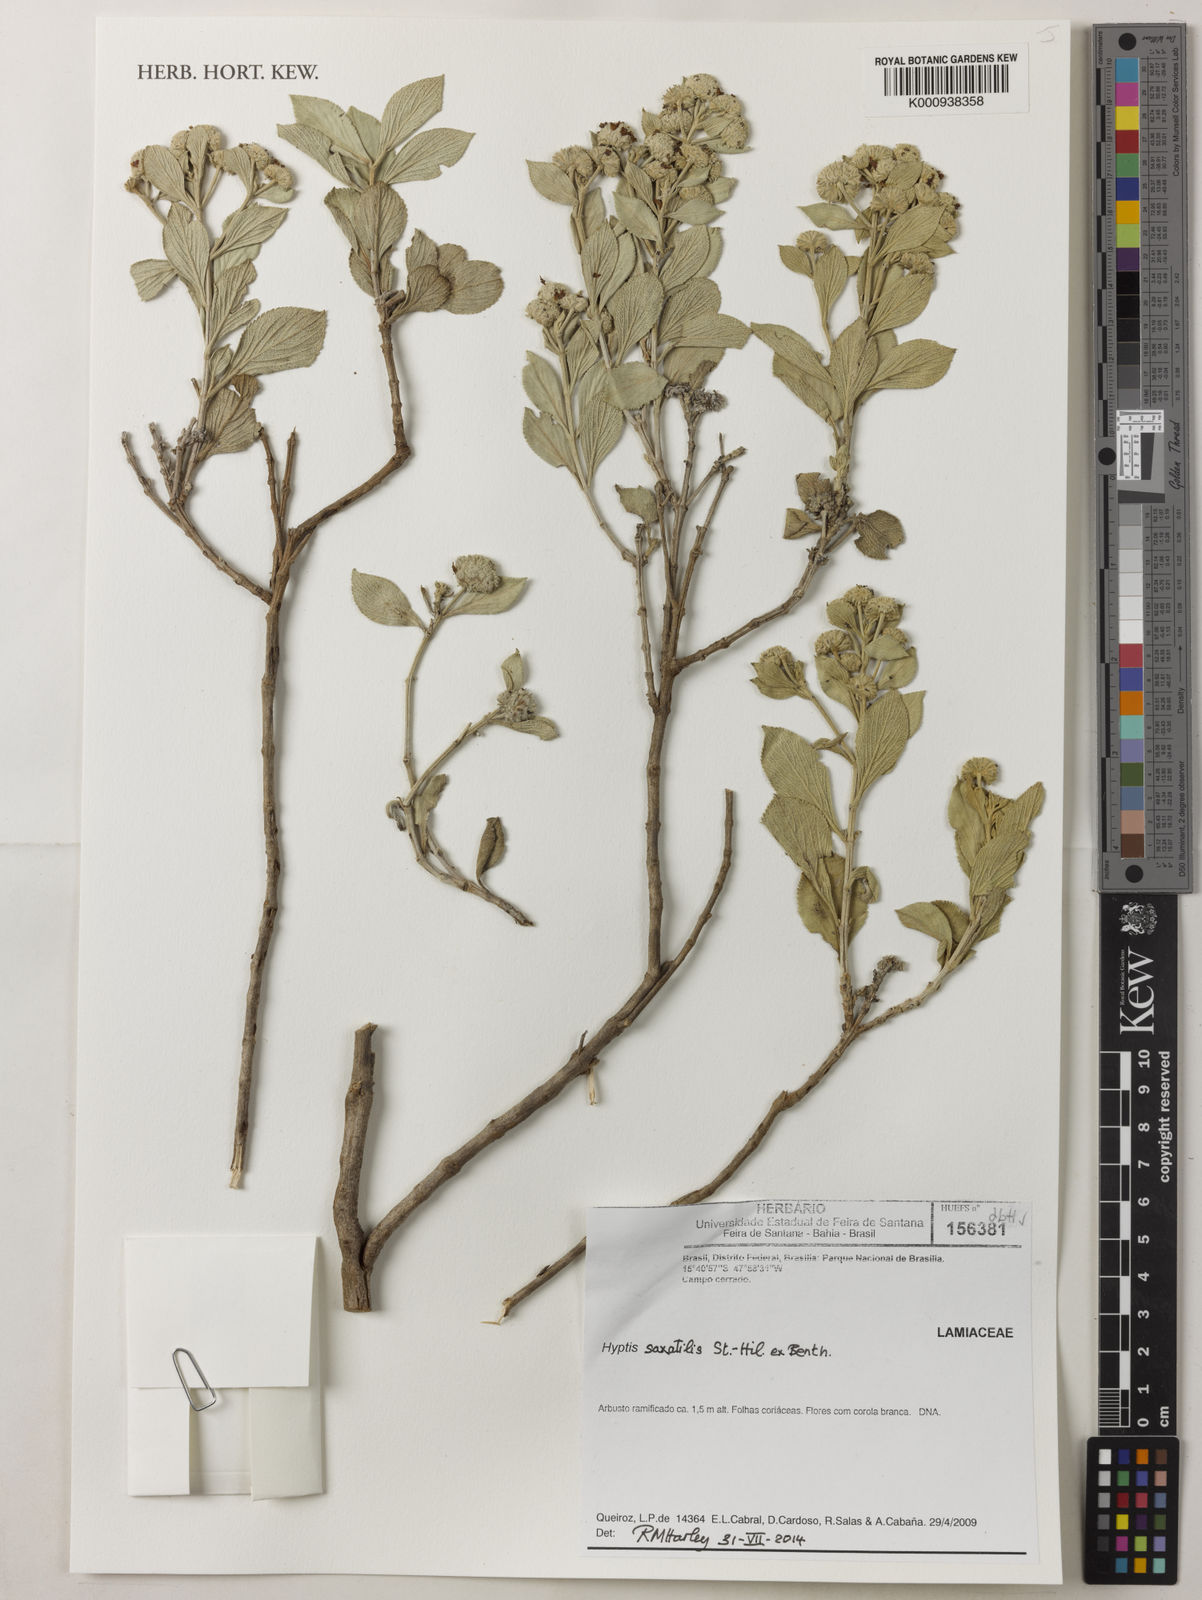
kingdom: Plantae
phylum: Tracheophyta
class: Magnoliopsida
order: Lamiales
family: Lamiaceae
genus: Hyptis
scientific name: Hyptis saxatilis
